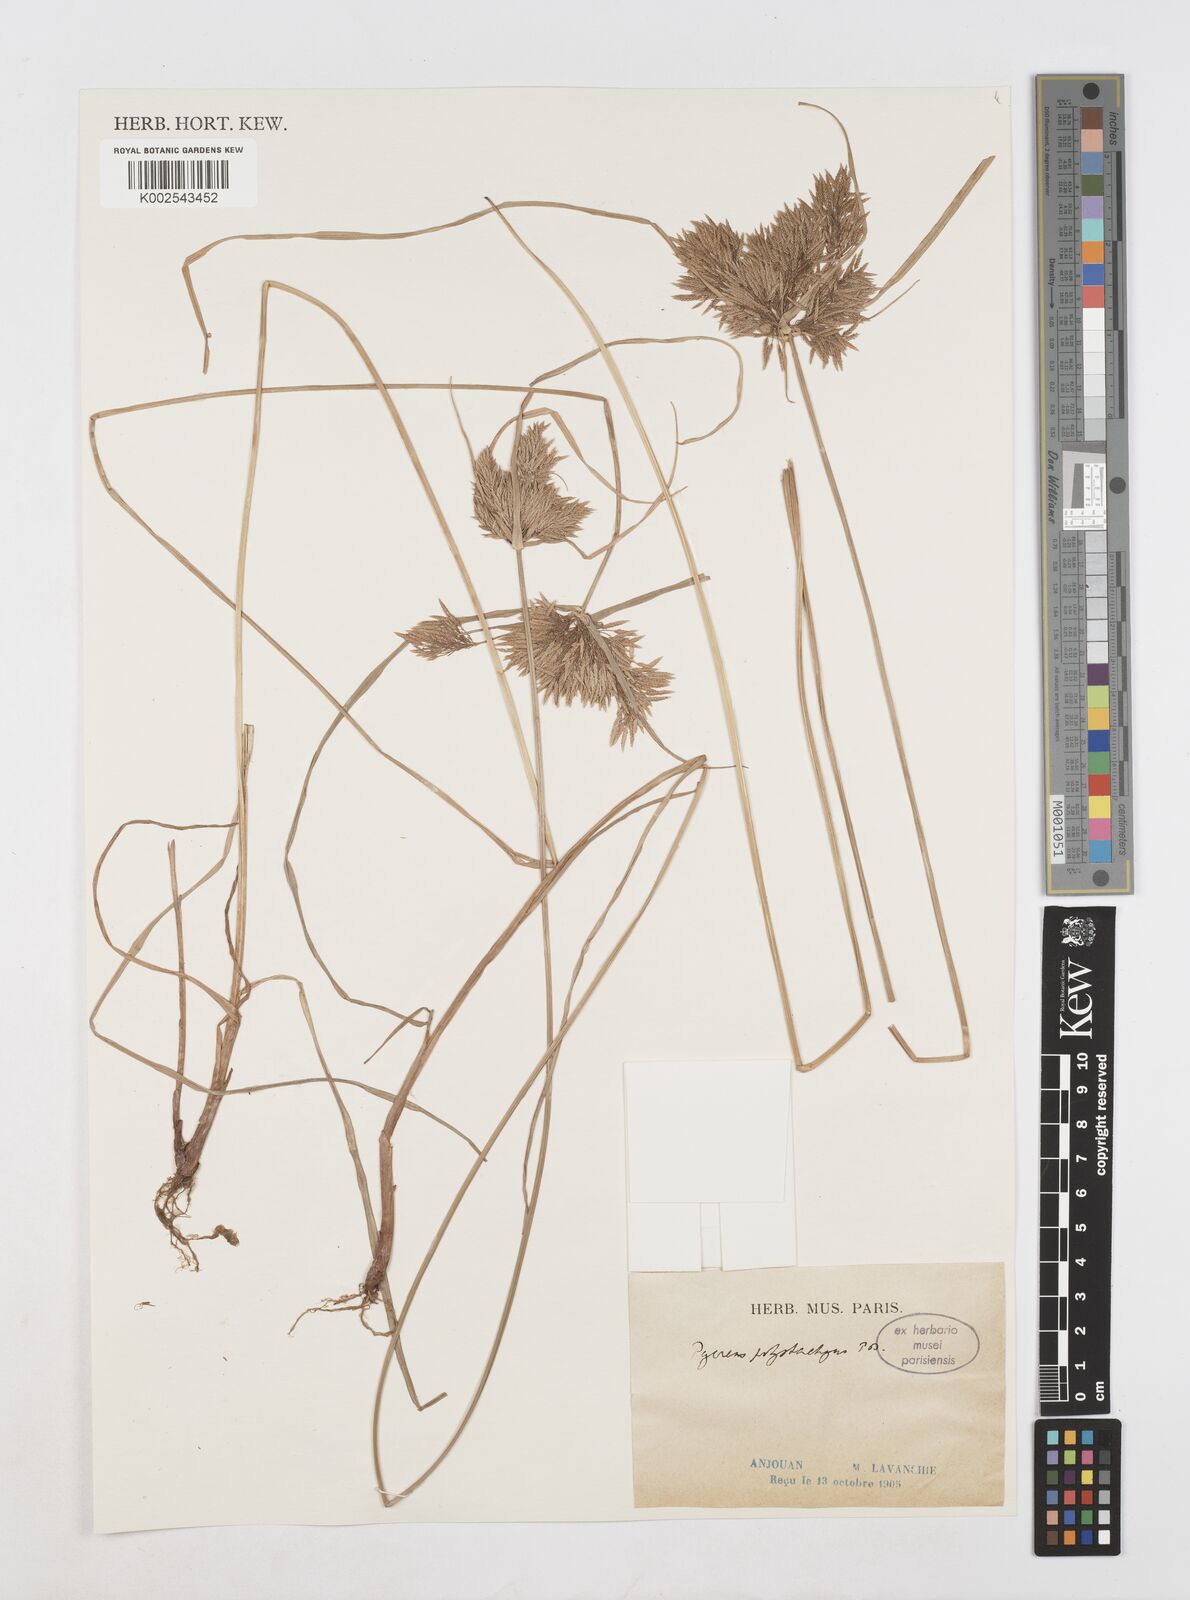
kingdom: Plantae
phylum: Tracheophyta
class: Liliopsida
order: Poales
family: Cyperaceae
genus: Cyperus
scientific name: Cyperus polystachyos
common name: Bunchy flat sedge
